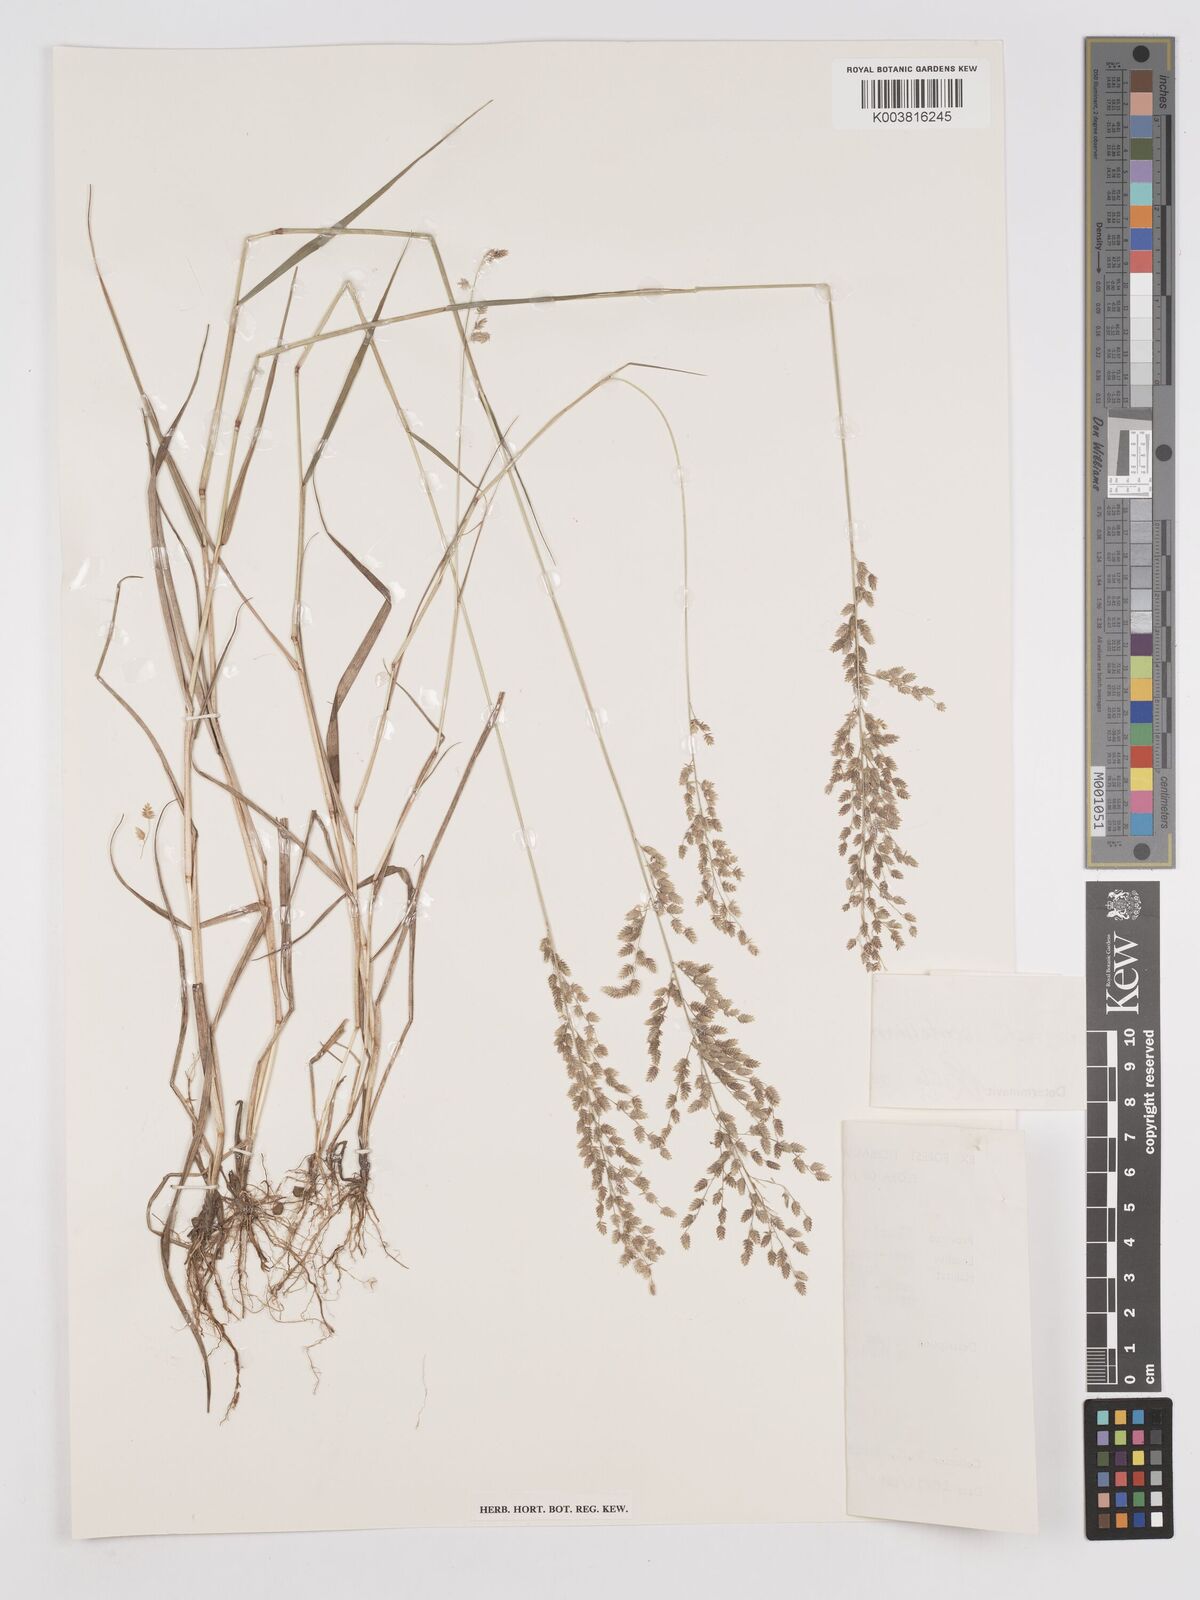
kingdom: Plantae
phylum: Tracheophyta
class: Liliopsida
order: Poales
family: Poaceae
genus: Eragrostis
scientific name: Eragrostis scotelliana
